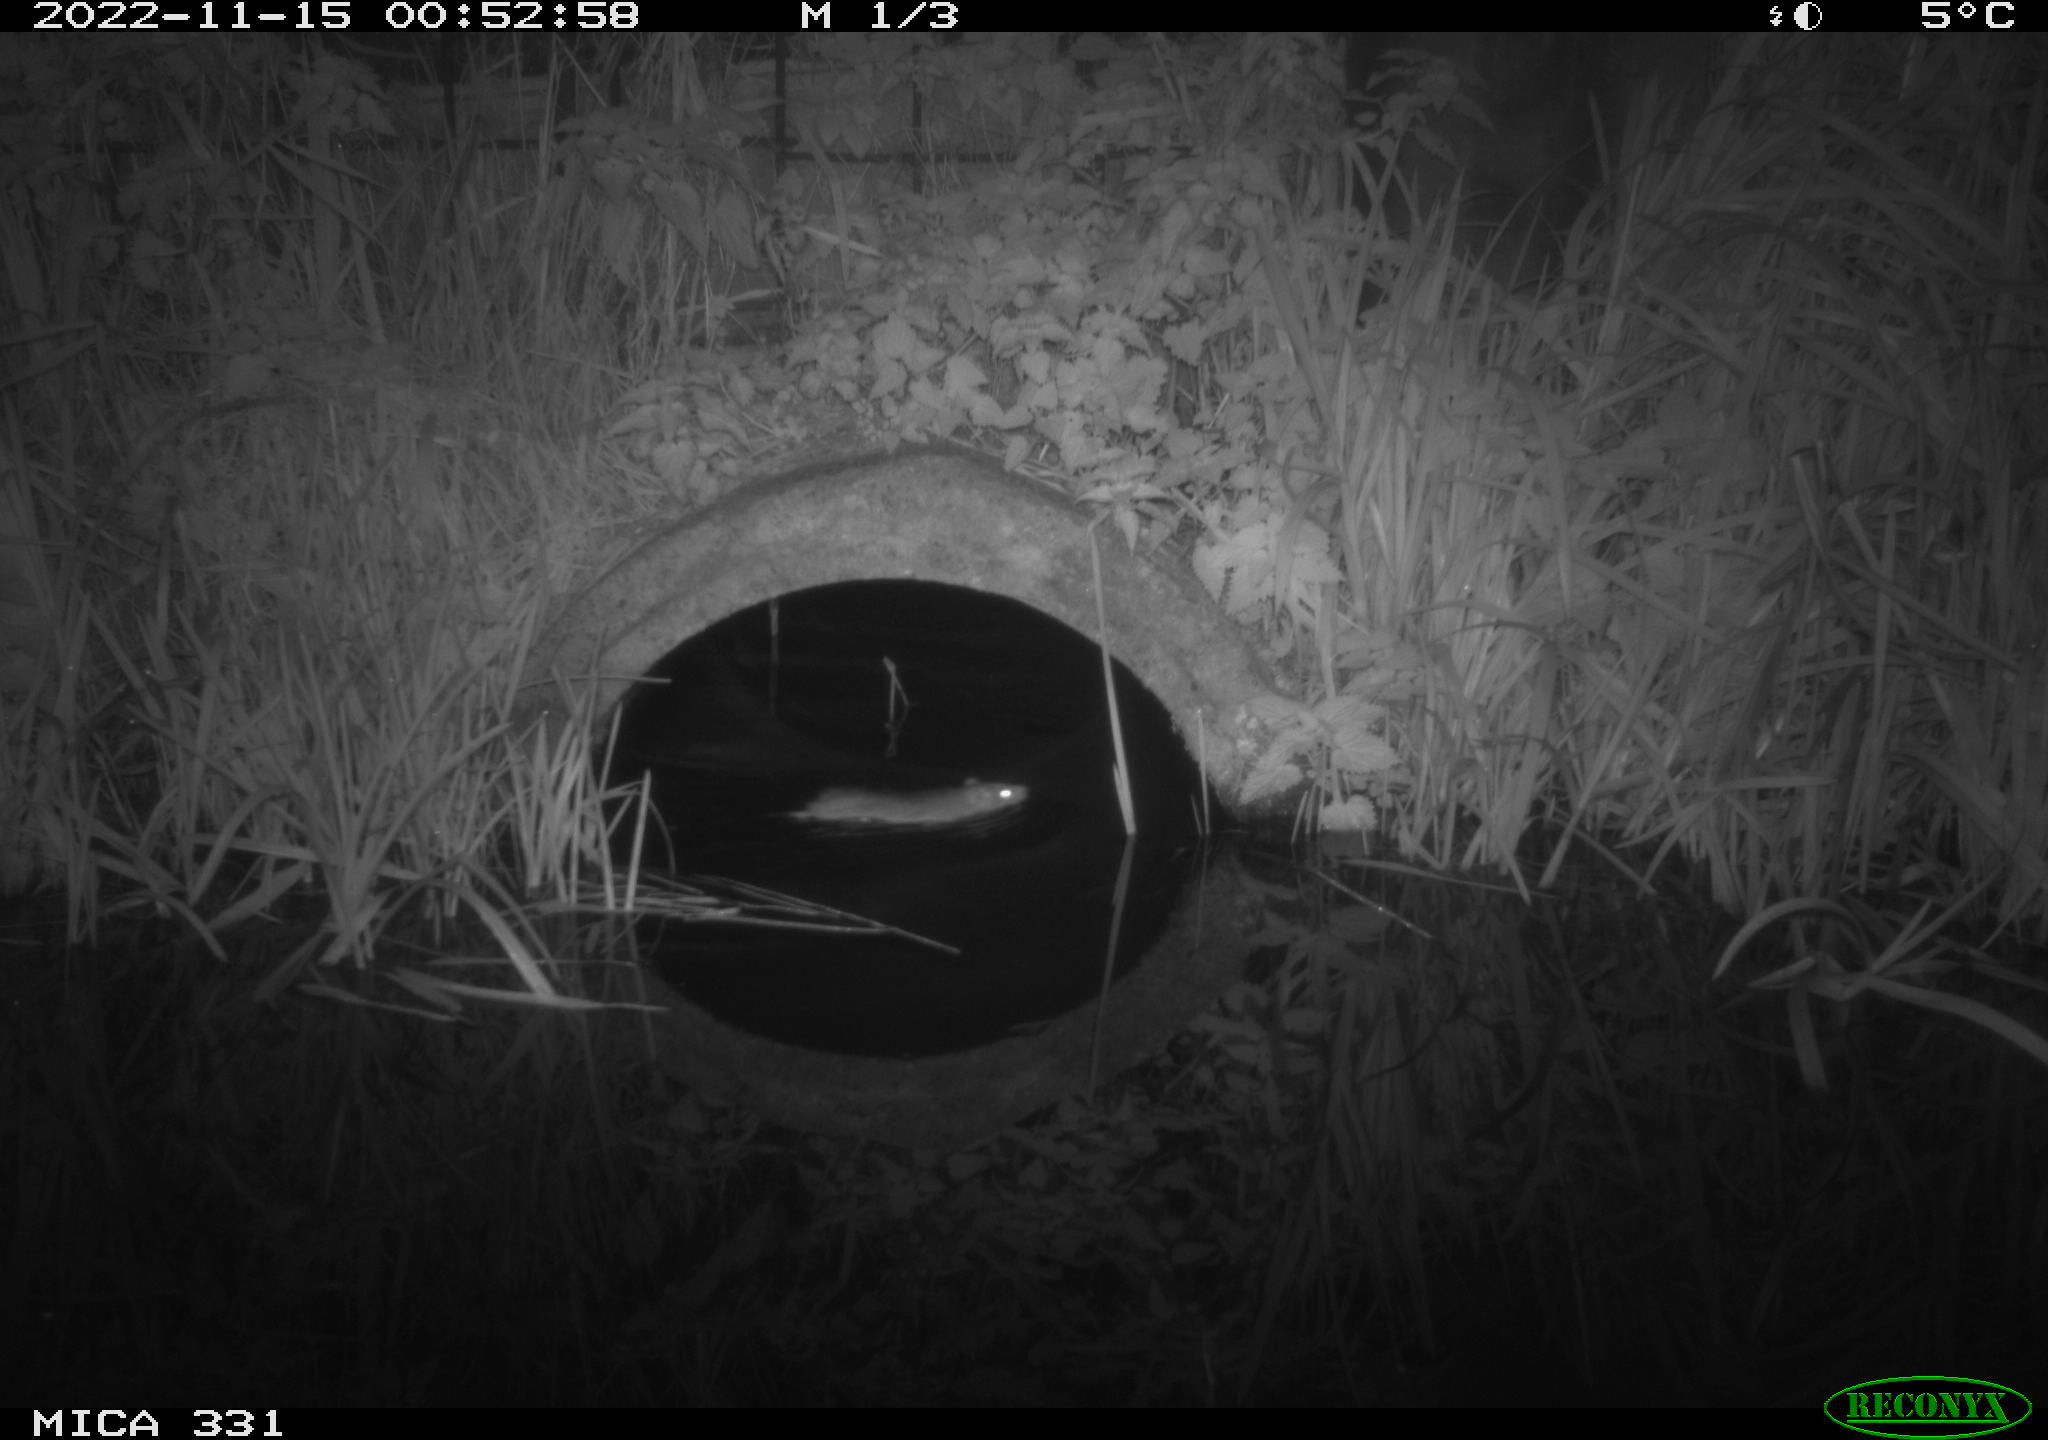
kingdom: Animalia
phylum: Chordata
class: Mammalia
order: Rodentia
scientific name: Rodentia
